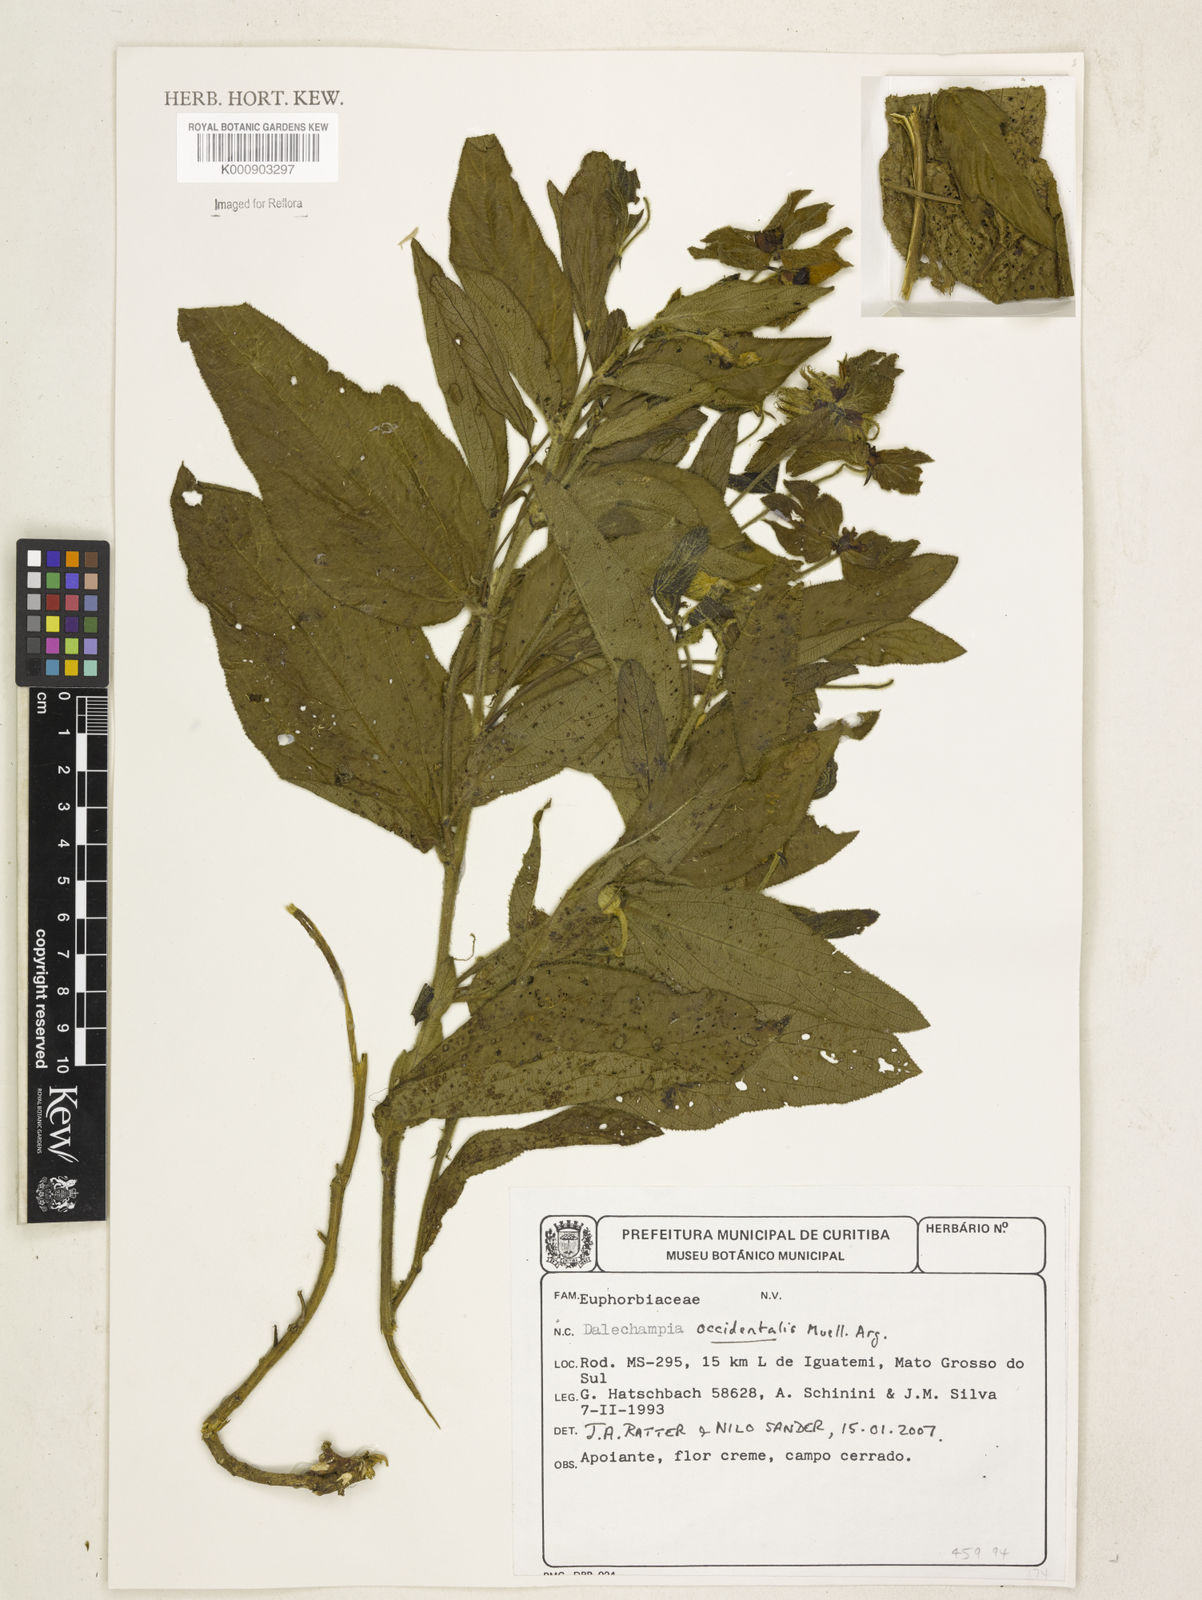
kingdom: Plantae
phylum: Tracheophyta
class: Magnoliopsida
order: Malpighiales
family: Euphorbiaceae
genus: Dalechampia
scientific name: Dalechampia
